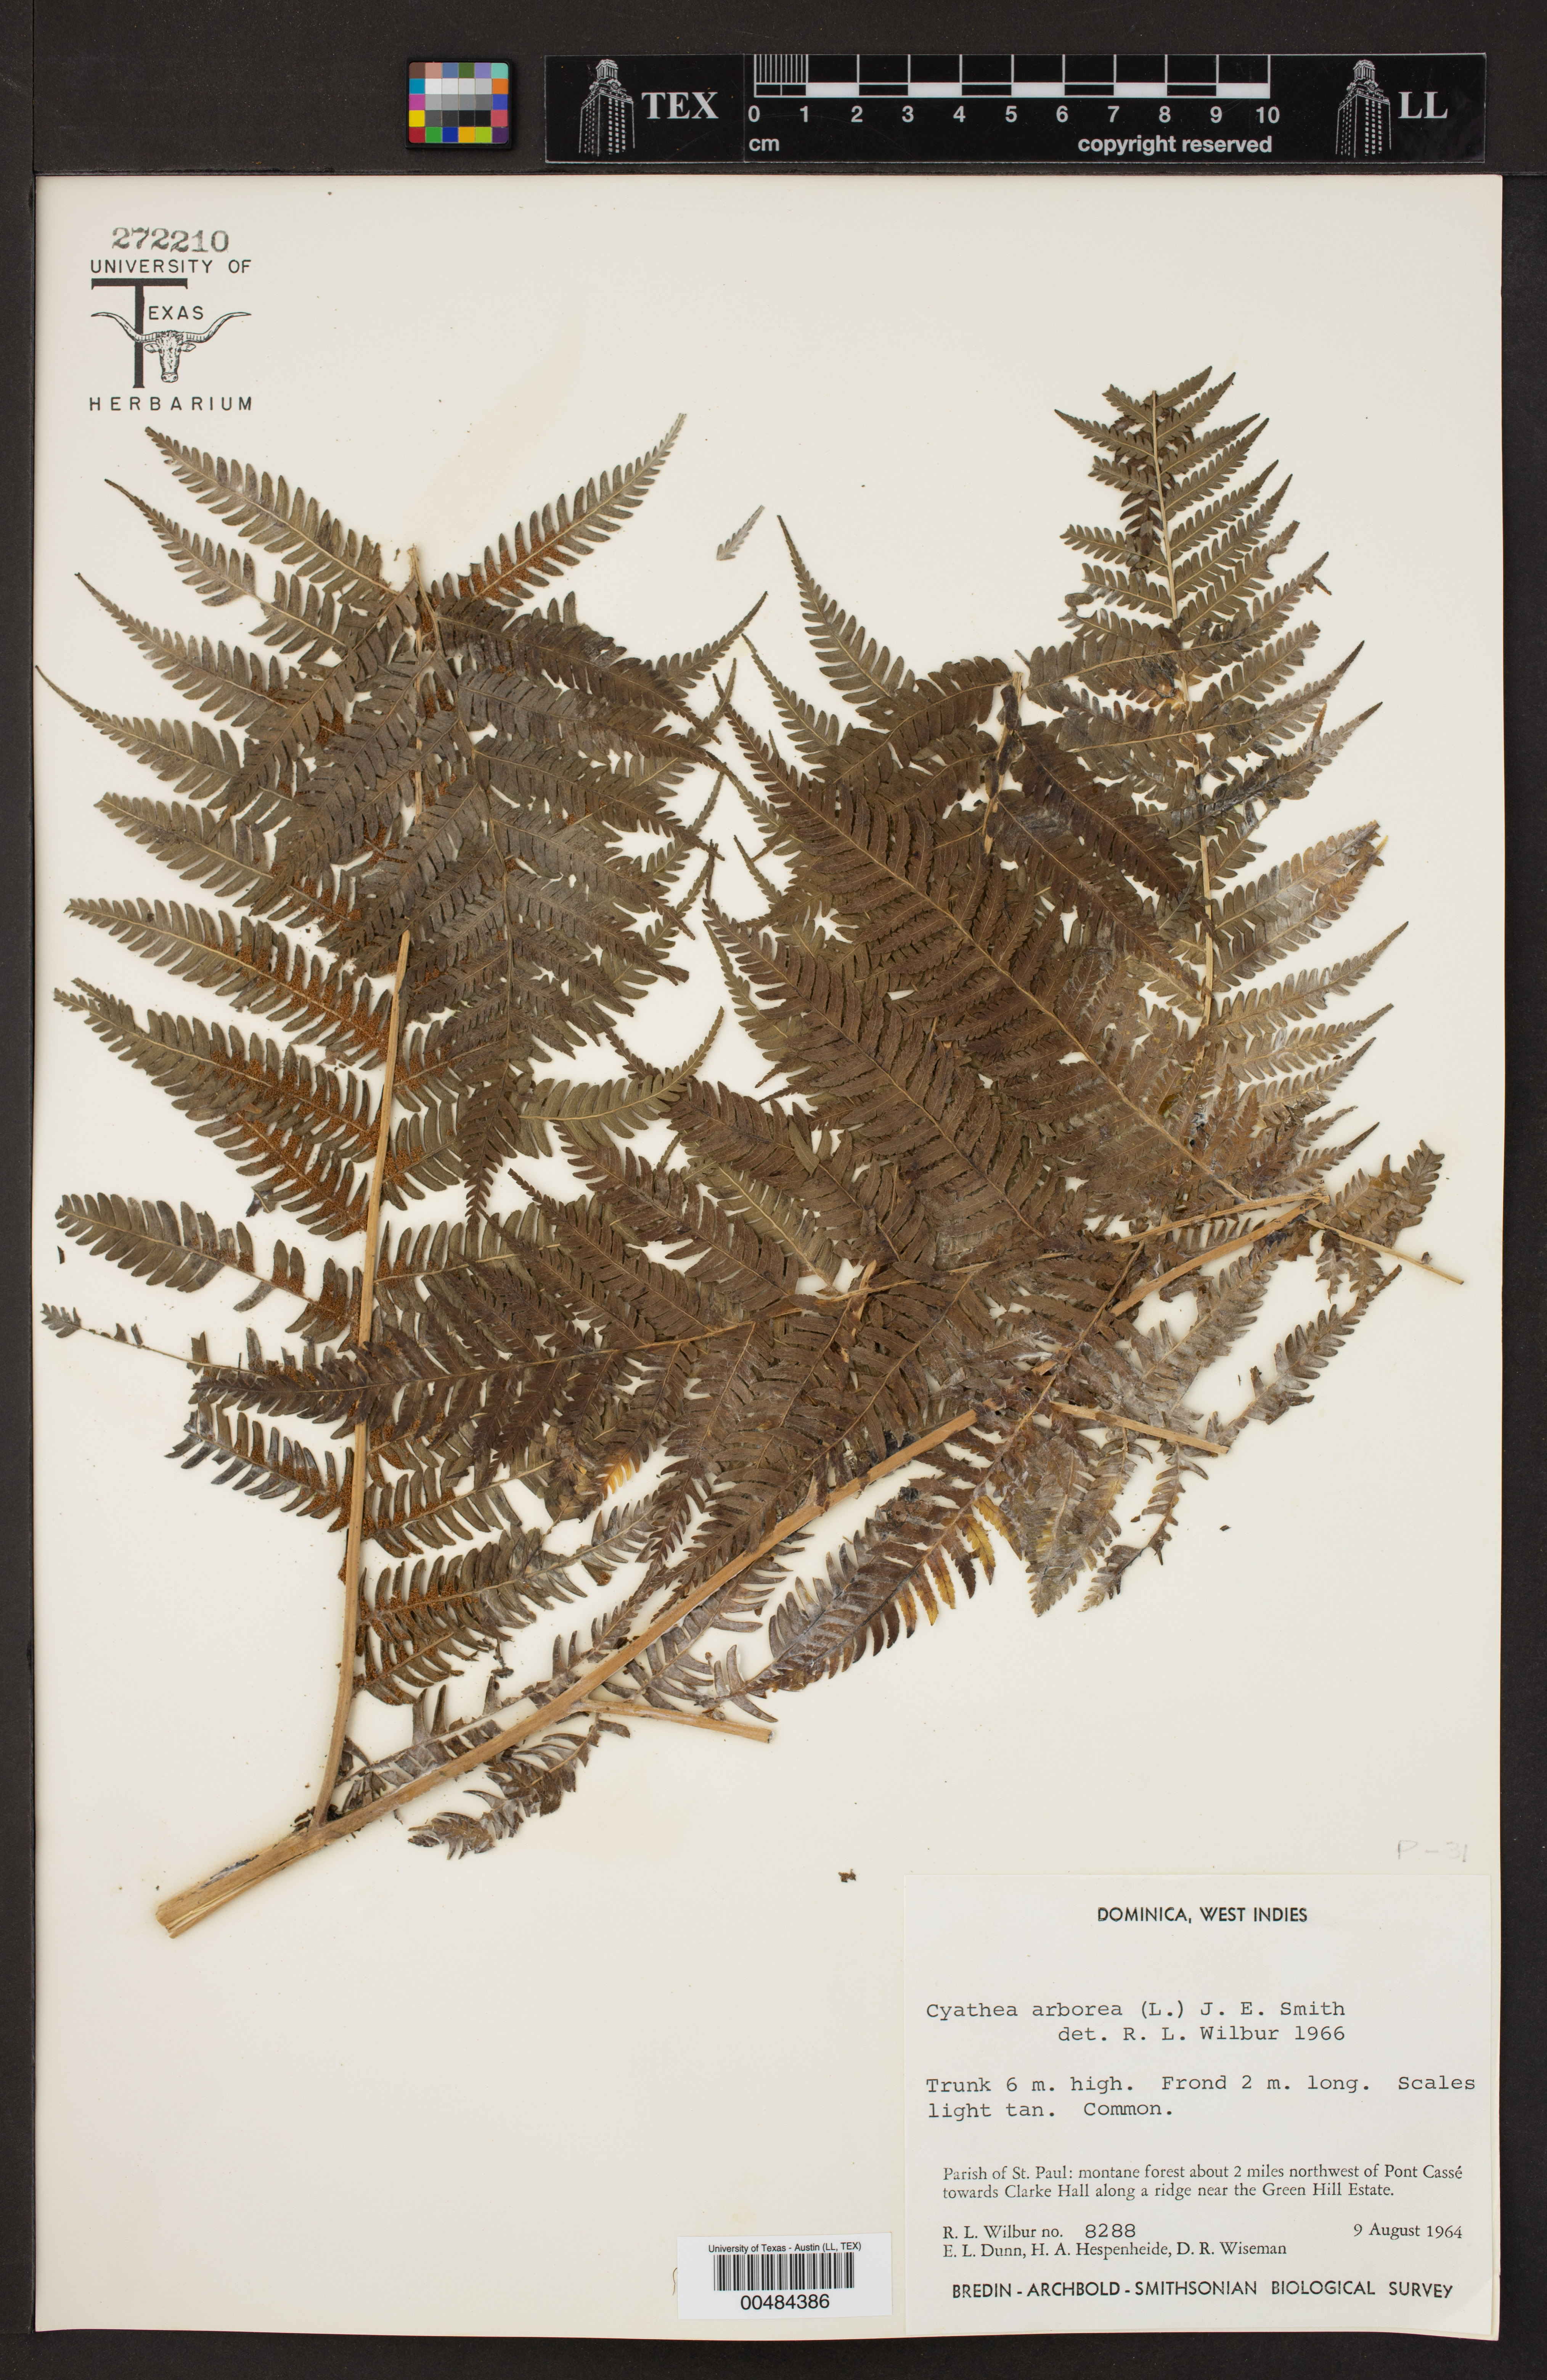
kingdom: Plantae
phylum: Tracheophyta
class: Polypodiopsida
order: Cyatheales
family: Cyatheaceae
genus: Cyathea
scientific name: Cyathea arborea
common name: West indian treefern
